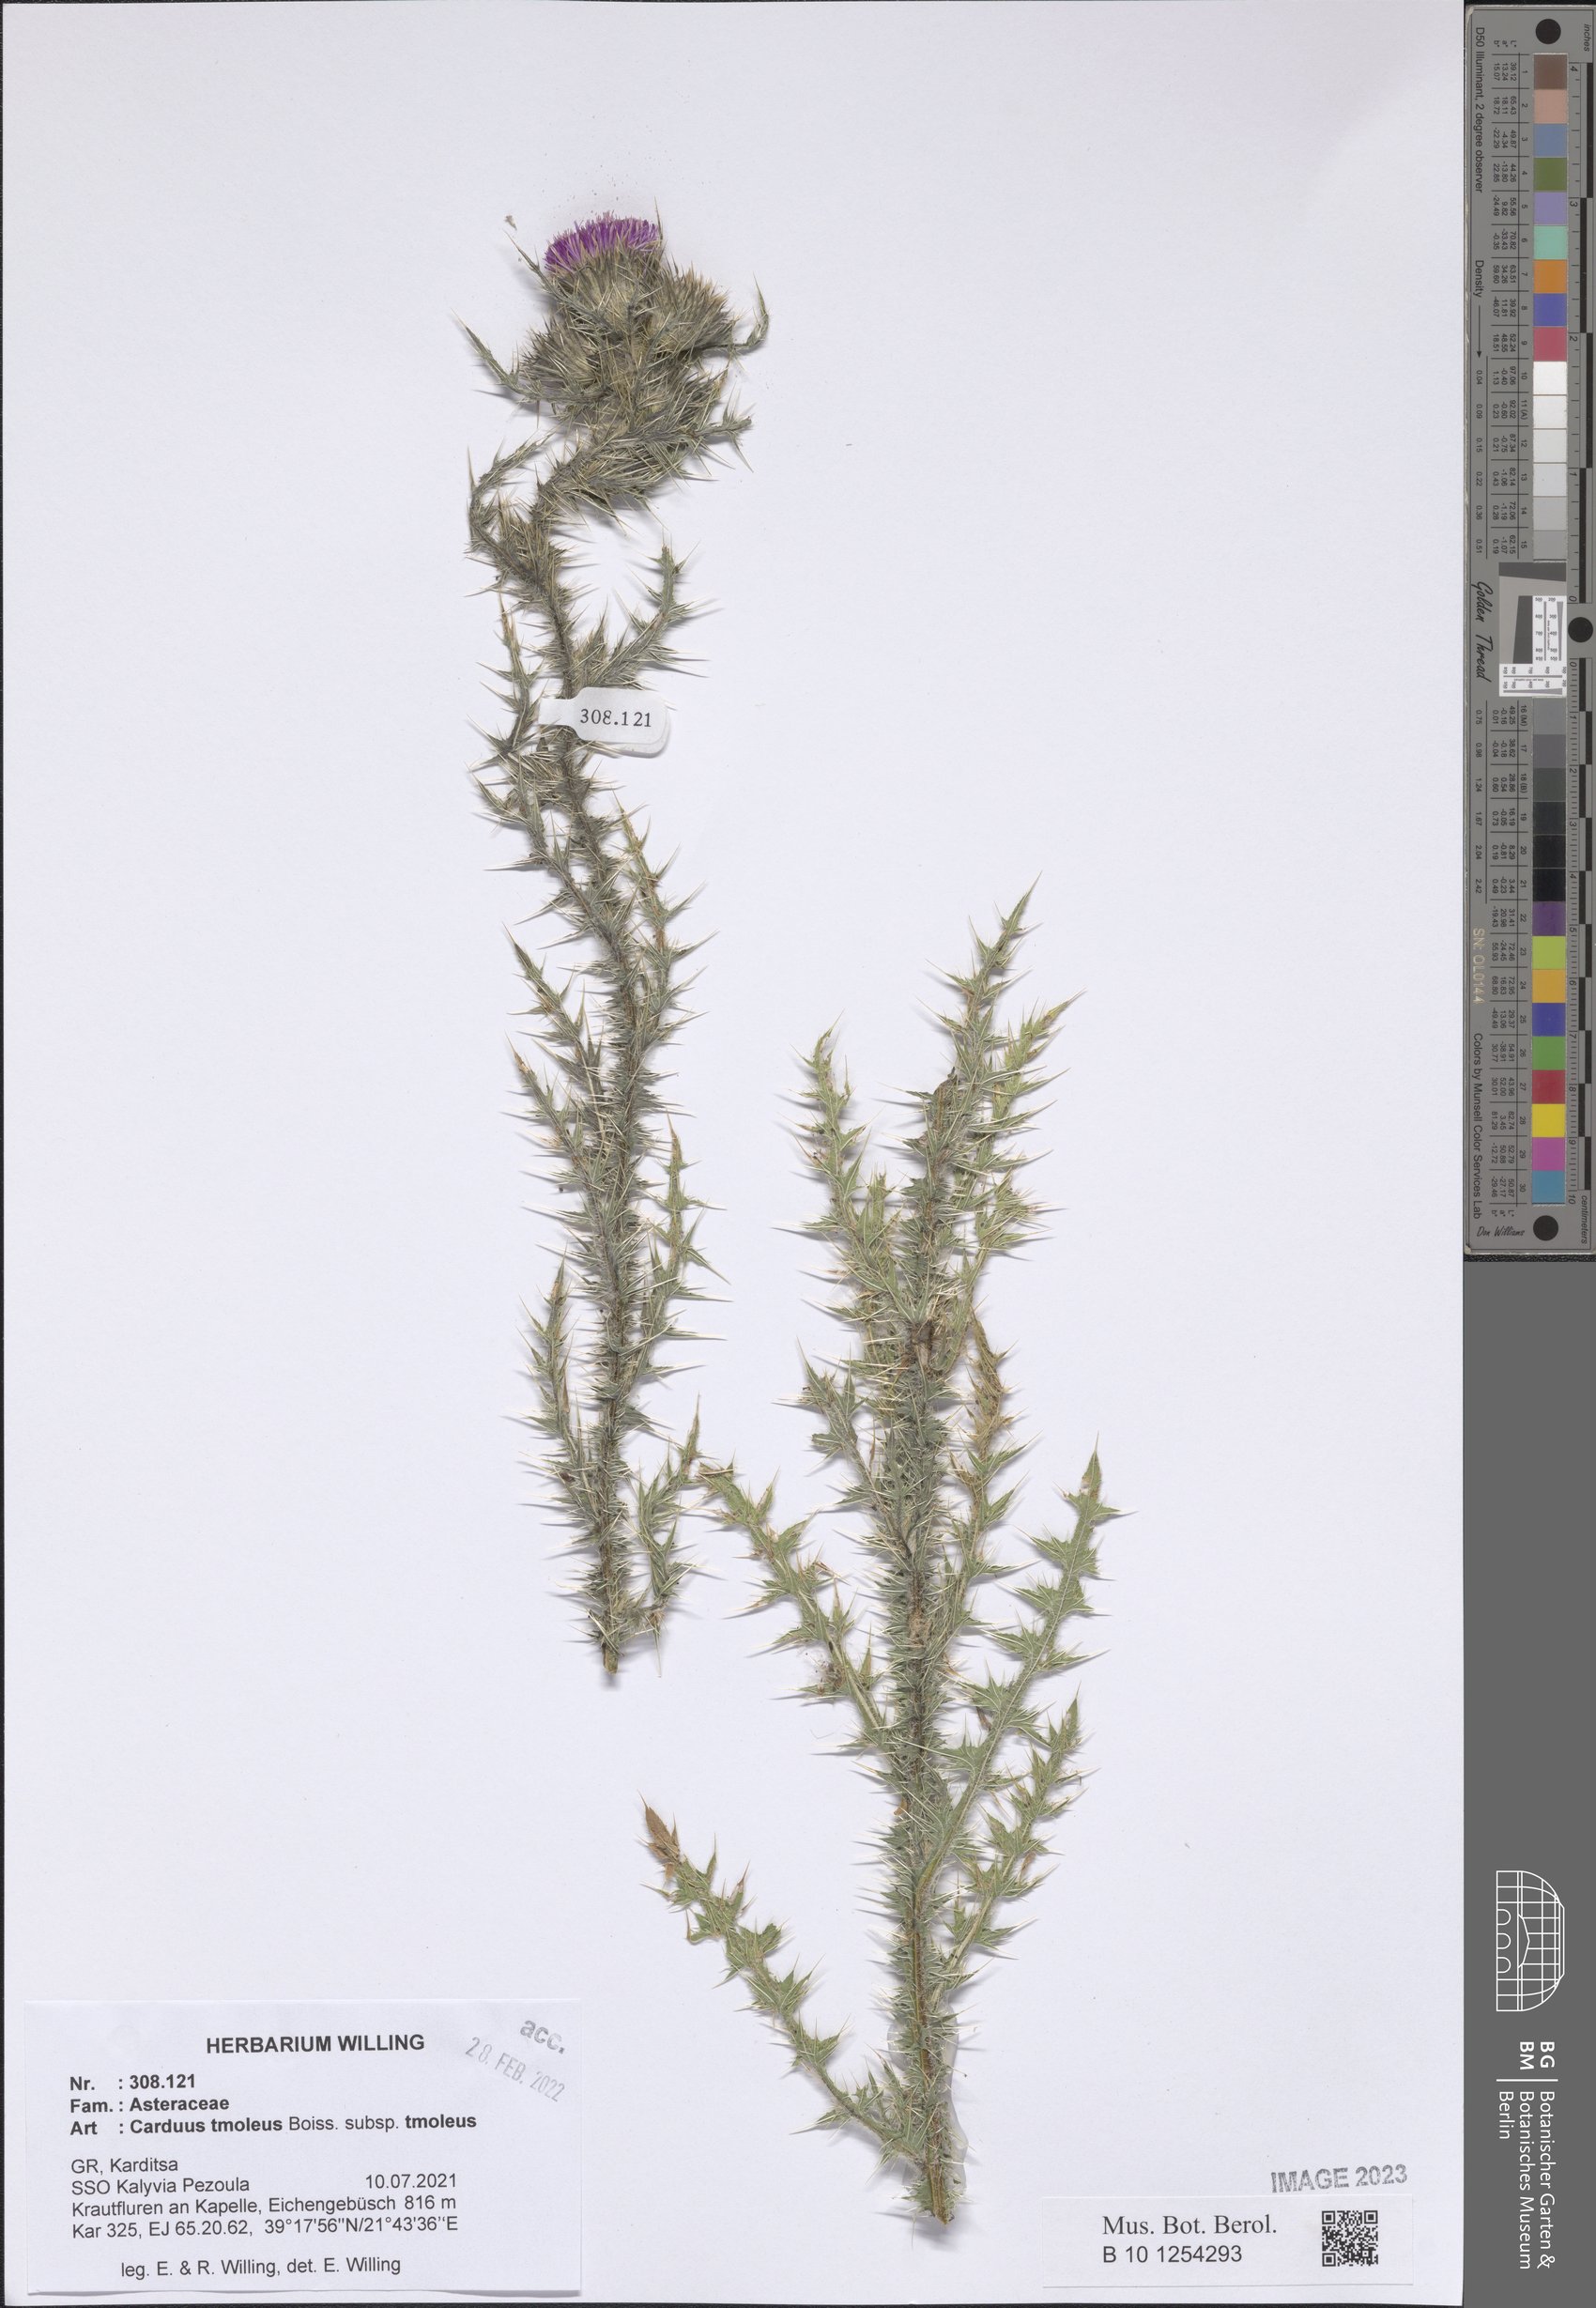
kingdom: Plantae
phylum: Tracheophyta
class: Magnoliopsida
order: Asterales
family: Asteraceae
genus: Carduus
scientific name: Carduus tmoleus
